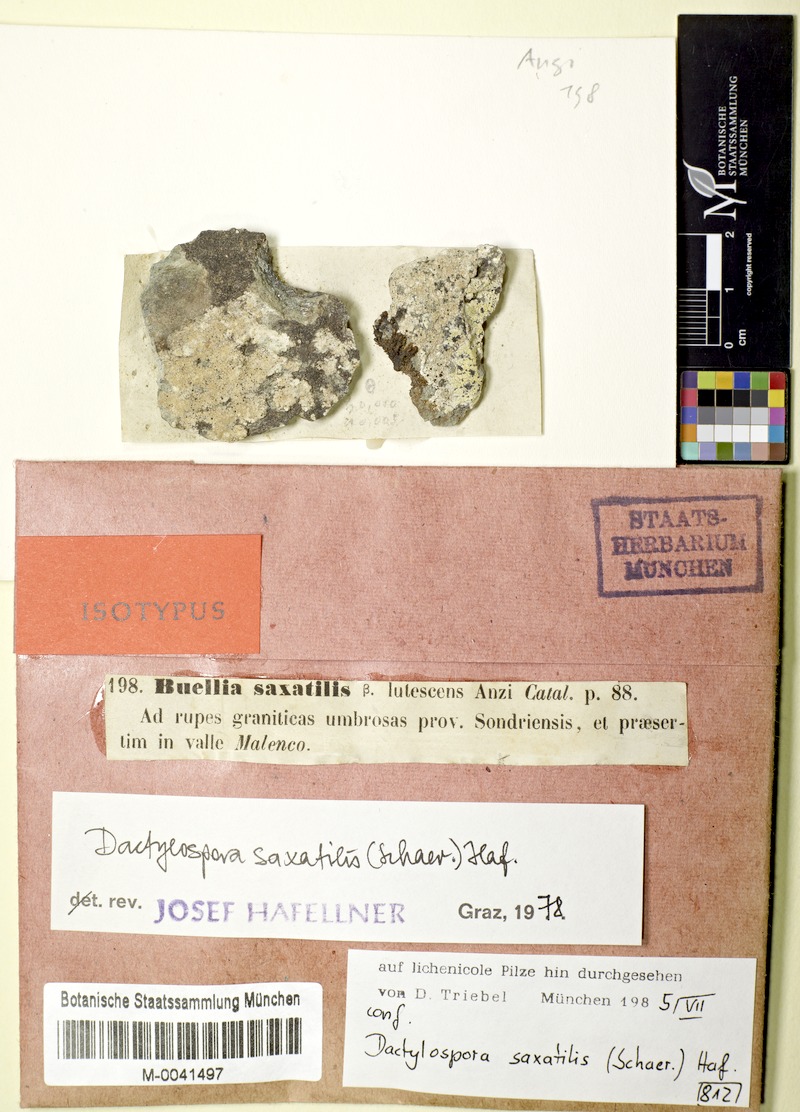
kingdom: Fungi
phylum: Ascomycota
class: Eurotiomycetes
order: Sclerococcales
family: Sclerococcaceae
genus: Sclerococcum
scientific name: Sclerococcum saxatile
